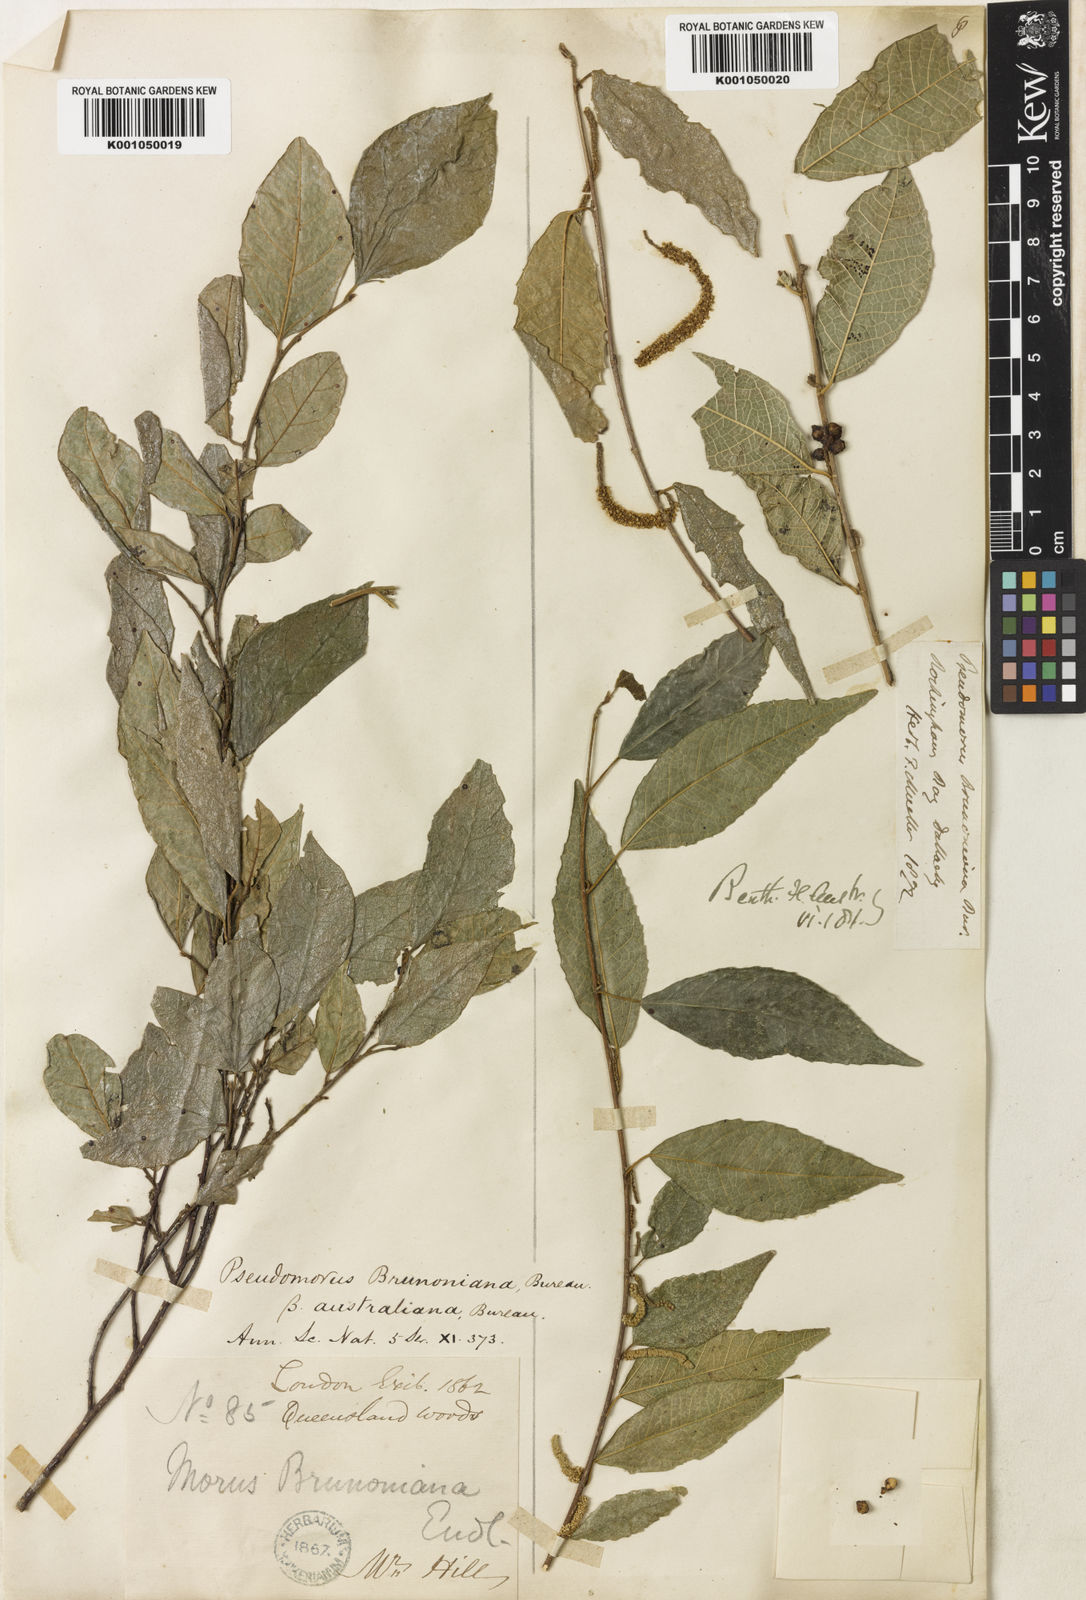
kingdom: Plantae
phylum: Tracheophyta
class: Magnoliopsida
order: Rosales
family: Moraceae
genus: Paratrophis
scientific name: Paratrophis pendulina
